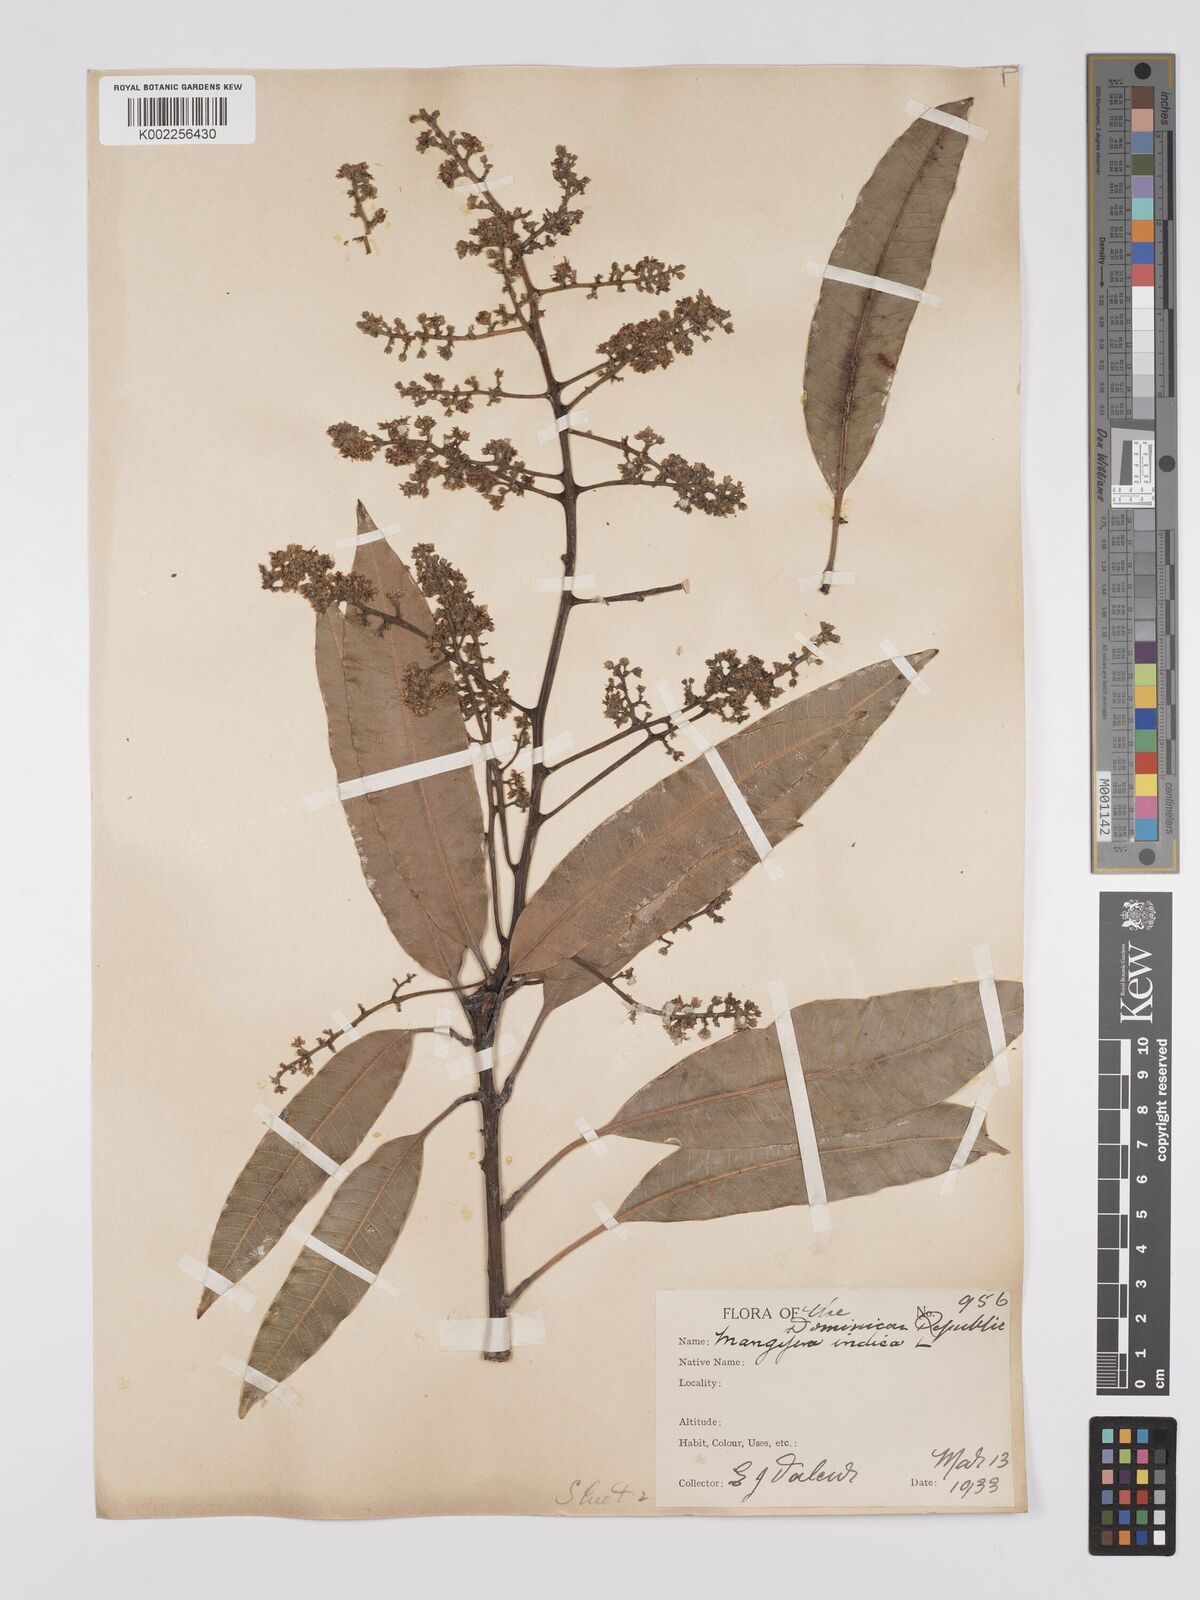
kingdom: Plantae
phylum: Tracheophyta
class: Magnoliopsida
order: Sapindales
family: Anacardiaceae
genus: Mangifera
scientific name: Mangifera indica
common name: Mango
